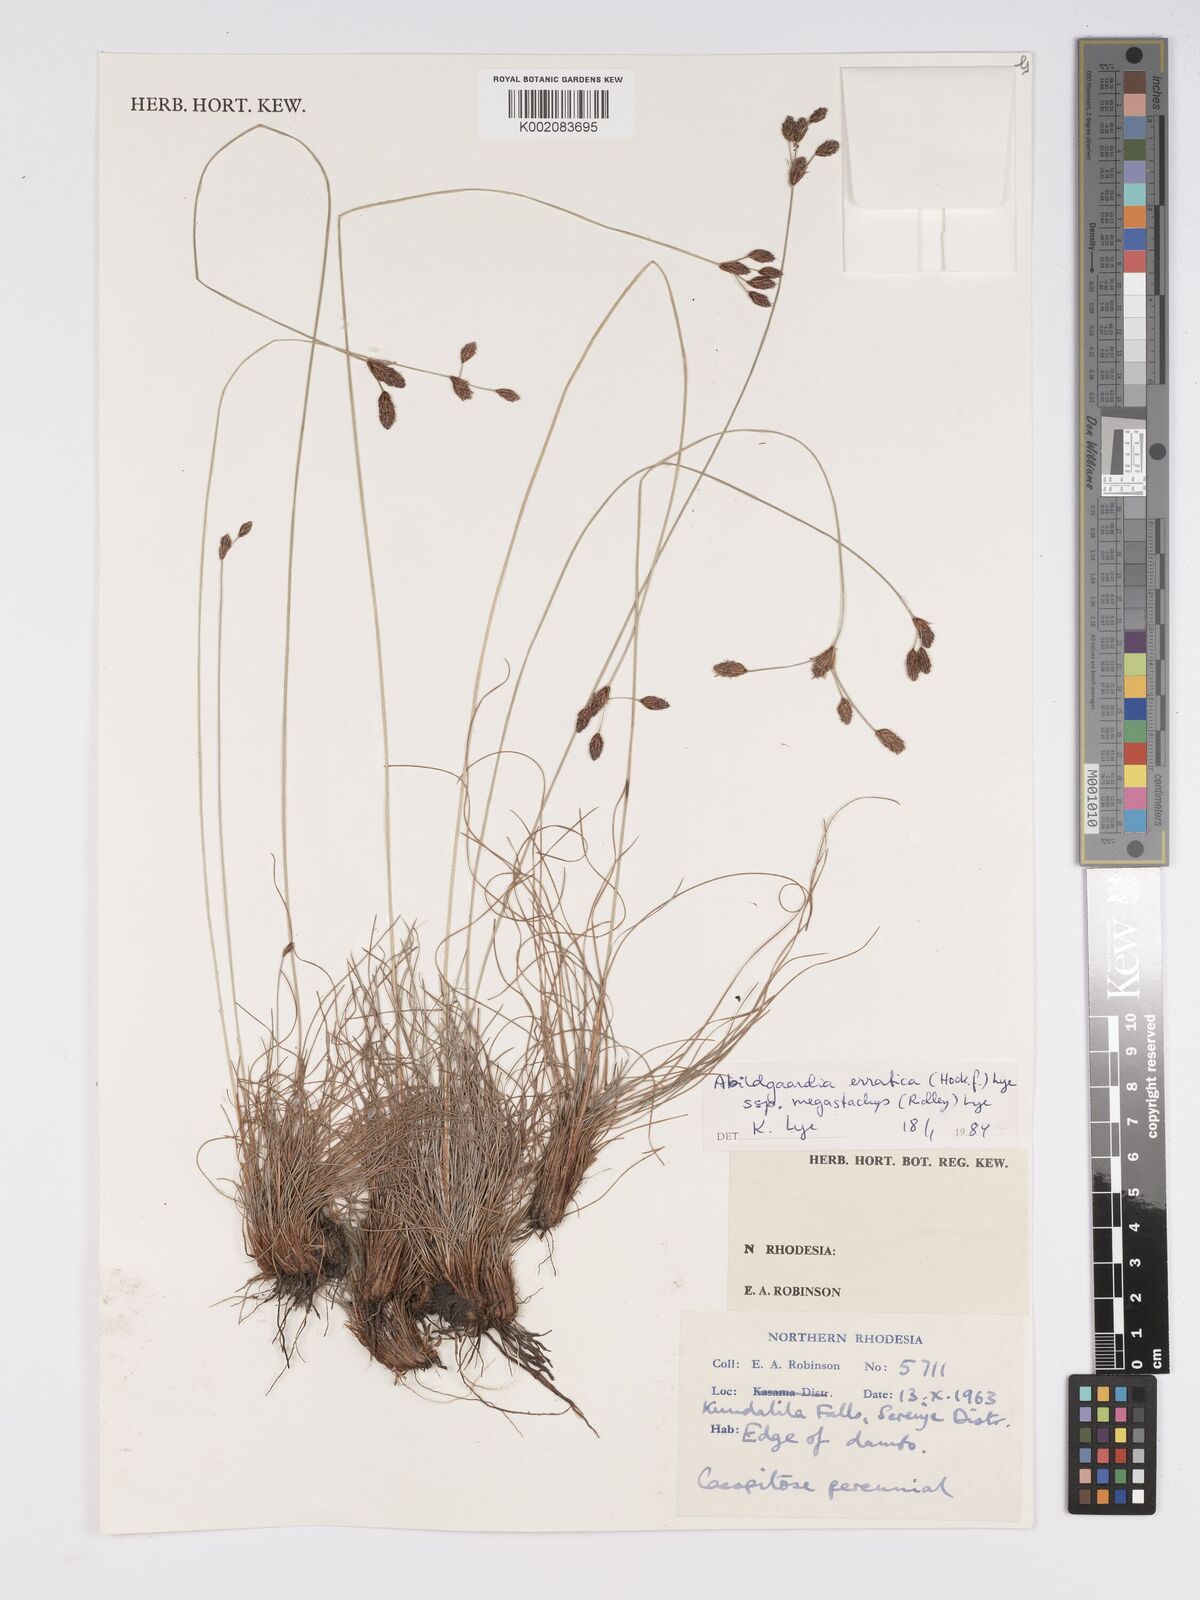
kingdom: Plantae
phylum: Tracheophyta
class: Liliopsida
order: Poales
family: Cyperaceae
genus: Bulbostylis
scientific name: Bulbostylis schoenoides
